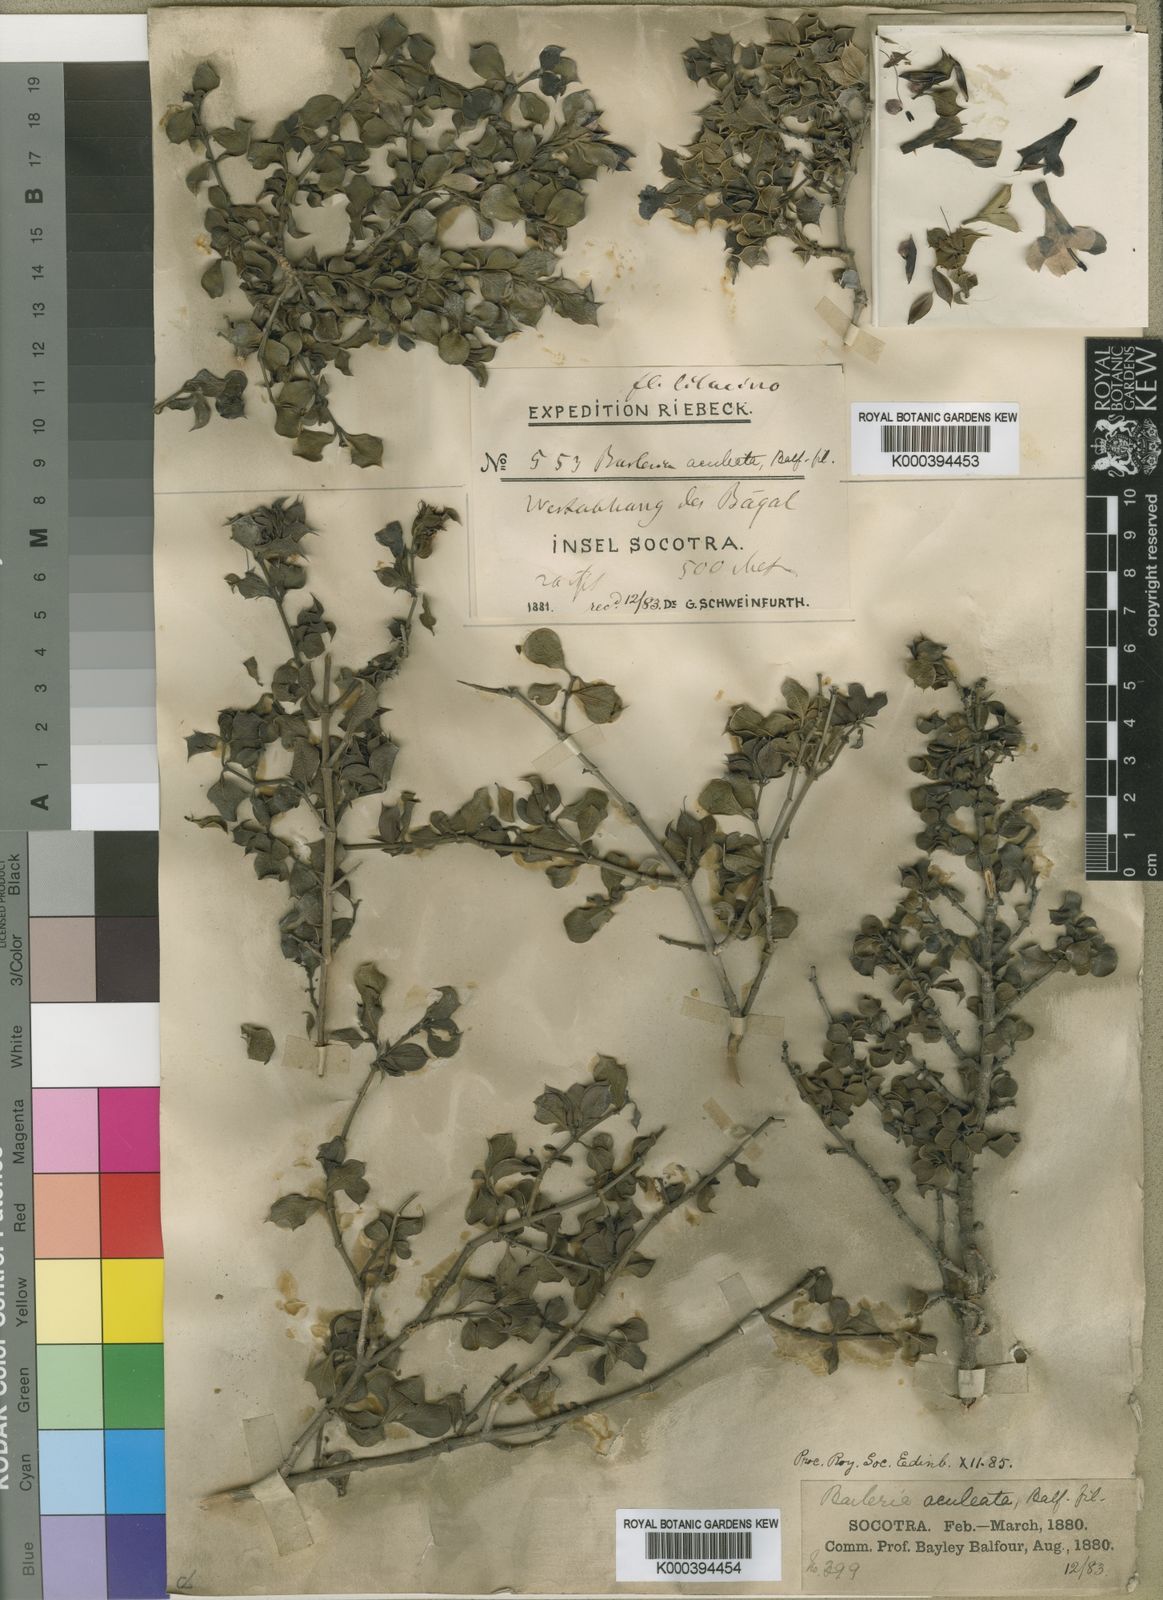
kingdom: Plantae
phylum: Tracheophyta
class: Magnoliopsida
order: Lamiales
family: Acanthaceae
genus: Barleria
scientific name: Barleria aculeata
